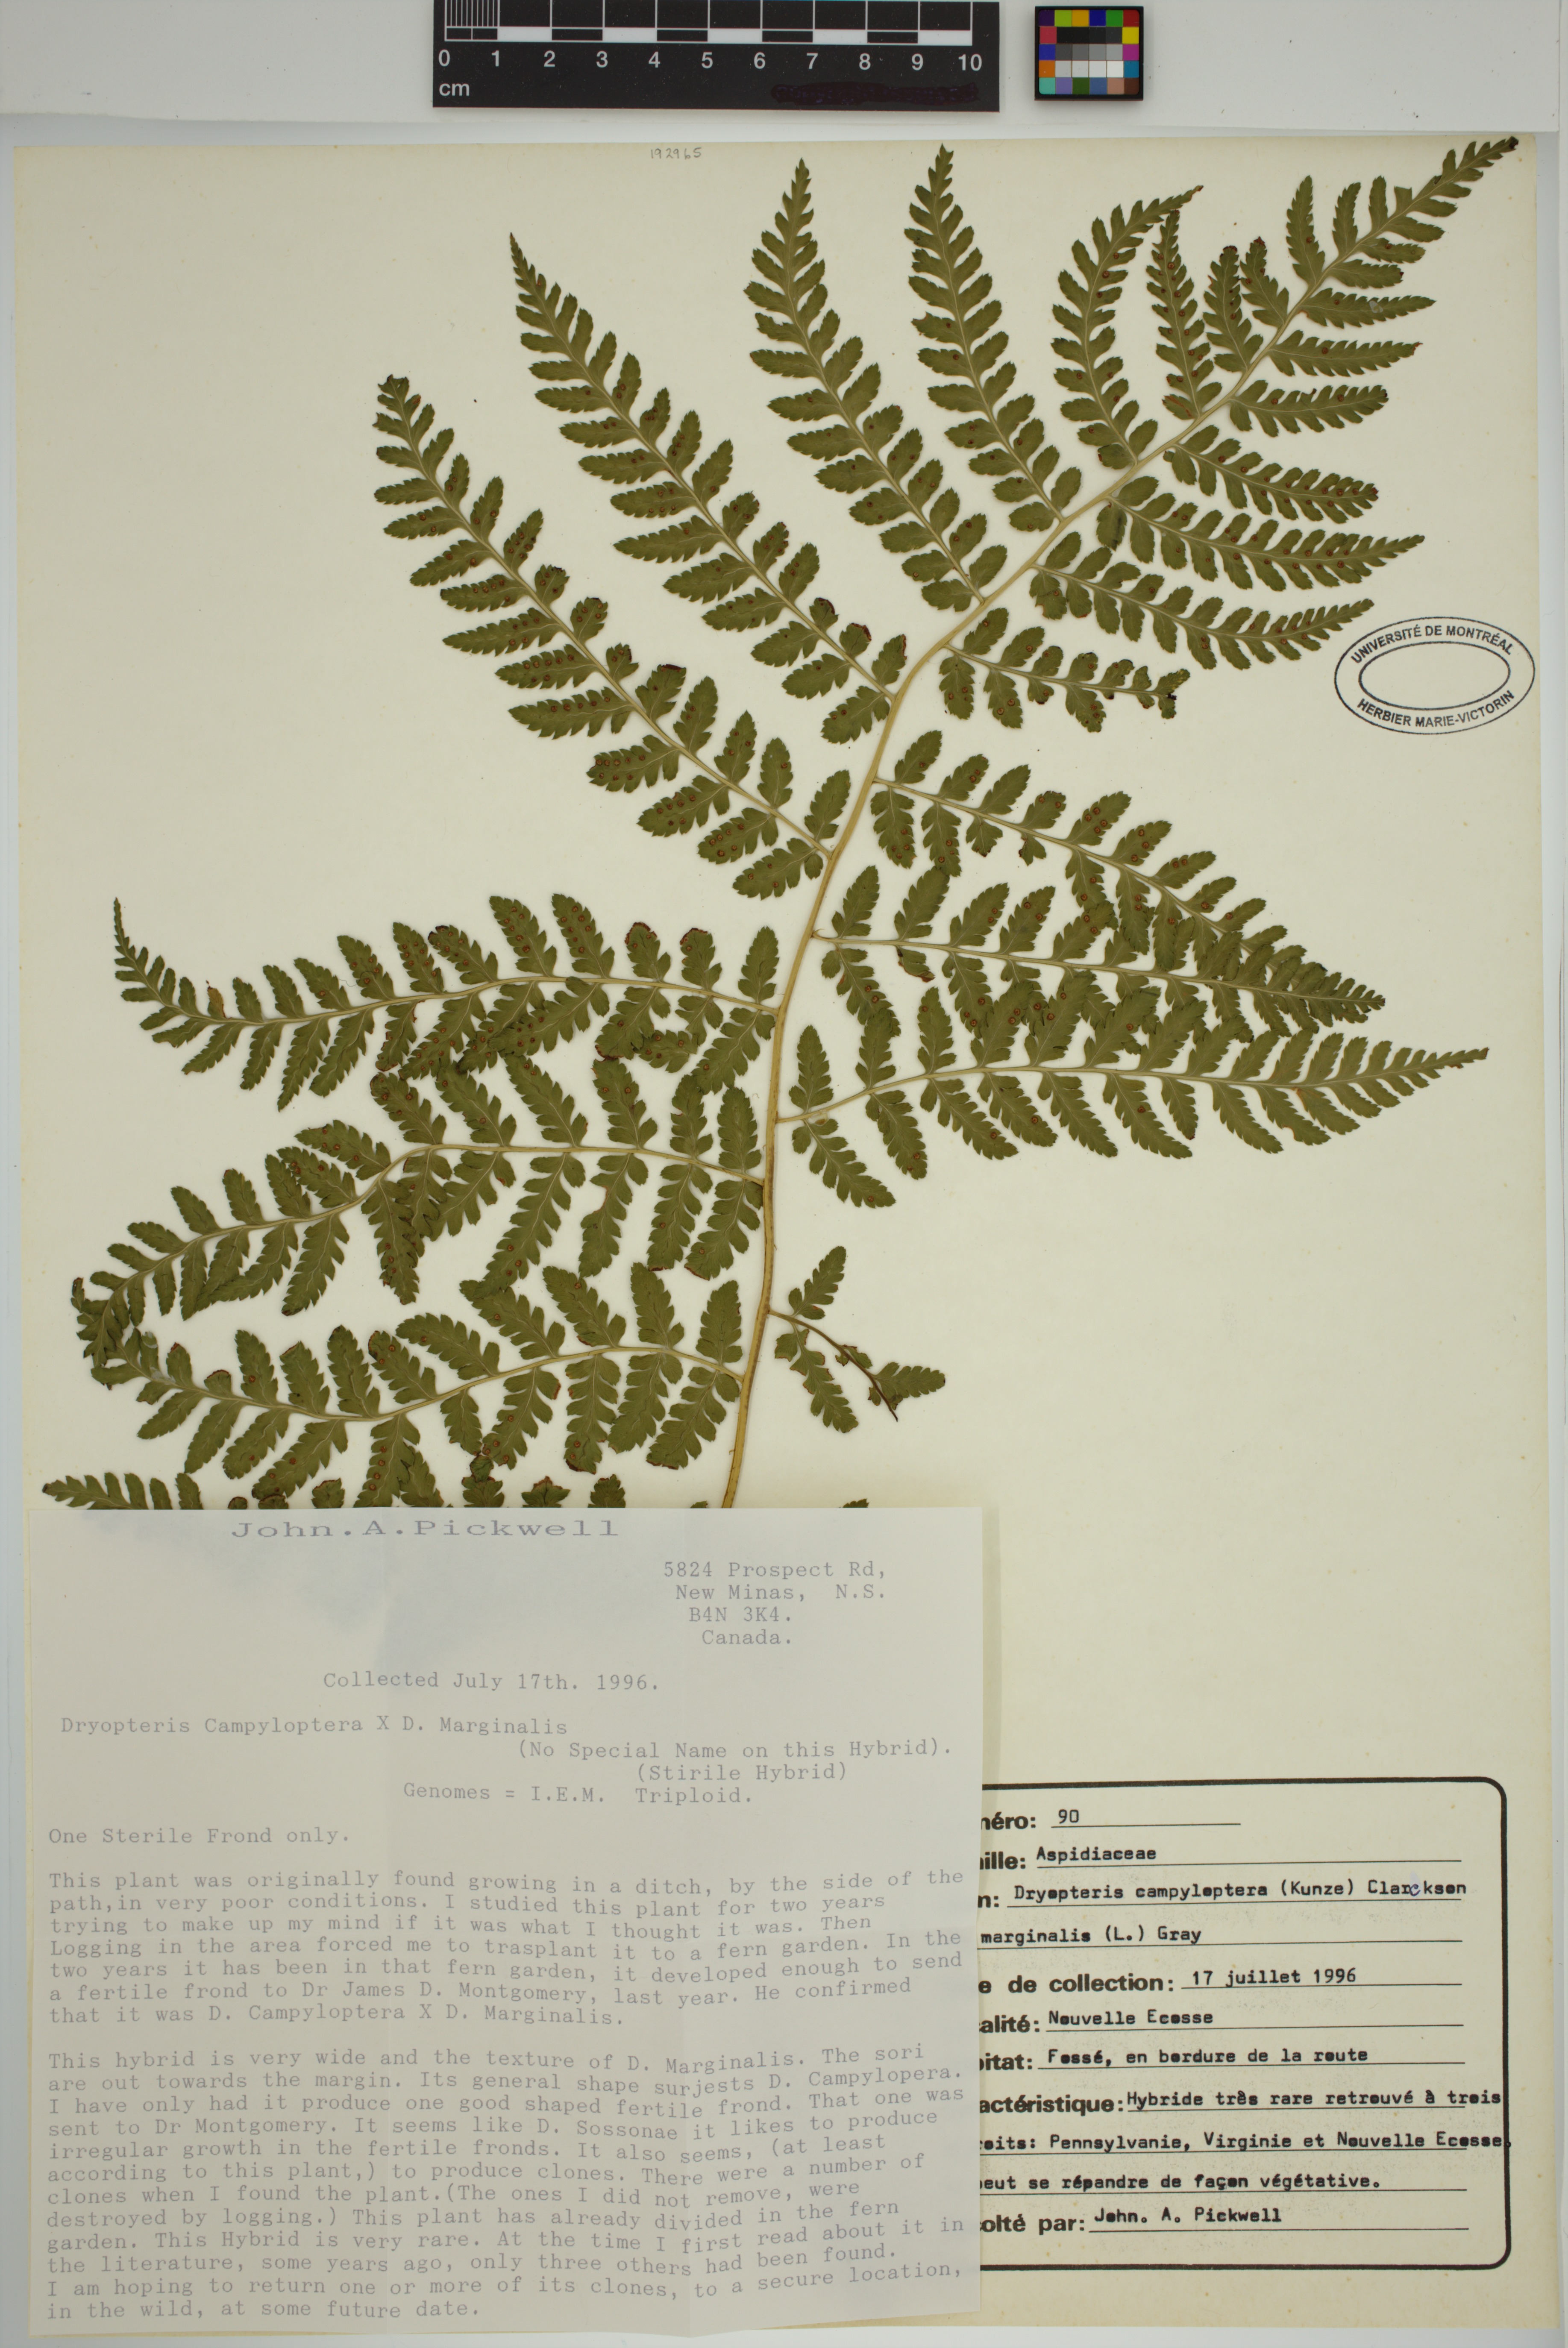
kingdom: Plantae
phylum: Tracheophyta
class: Polypodiopsida
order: Polypodiales
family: Dryopteridaceae
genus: Dryopteris
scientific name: Dryopteris campyloptera
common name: Mountain wood fern
